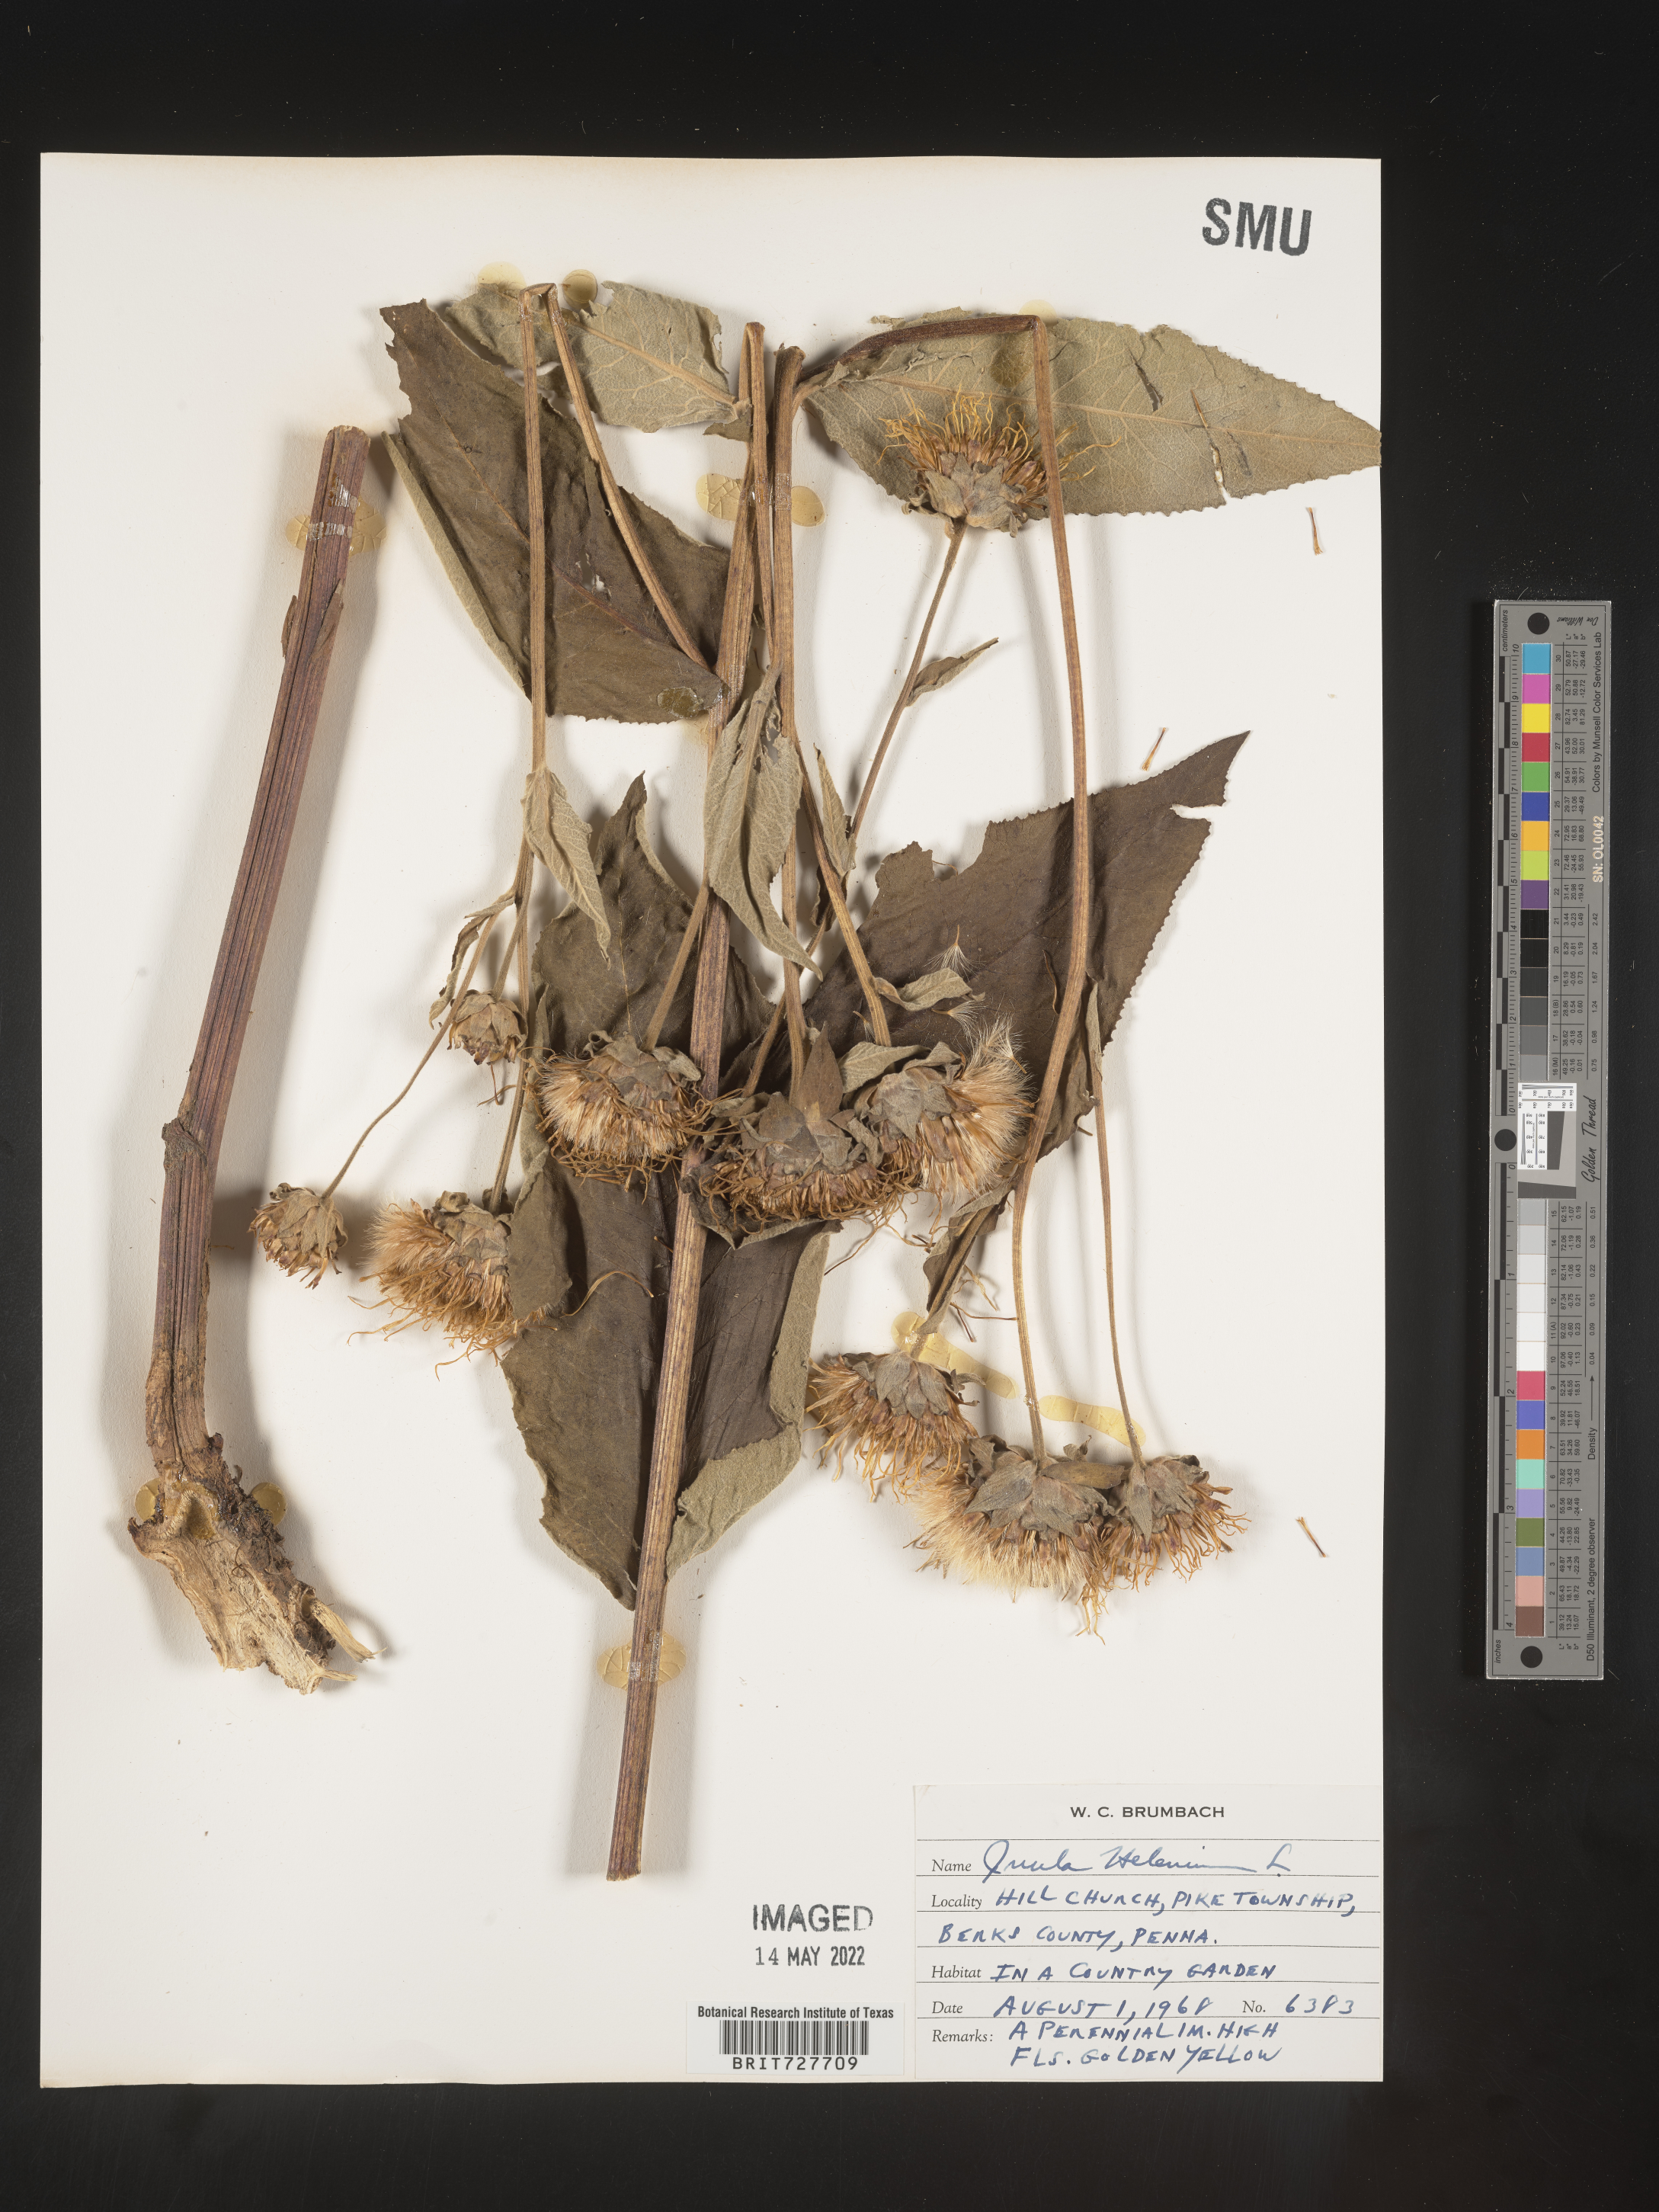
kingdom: Plantae
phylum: Tracheophyta
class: Magnoliopsida
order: Asterales
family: Asteraceae
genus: Inula
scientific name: Inula
